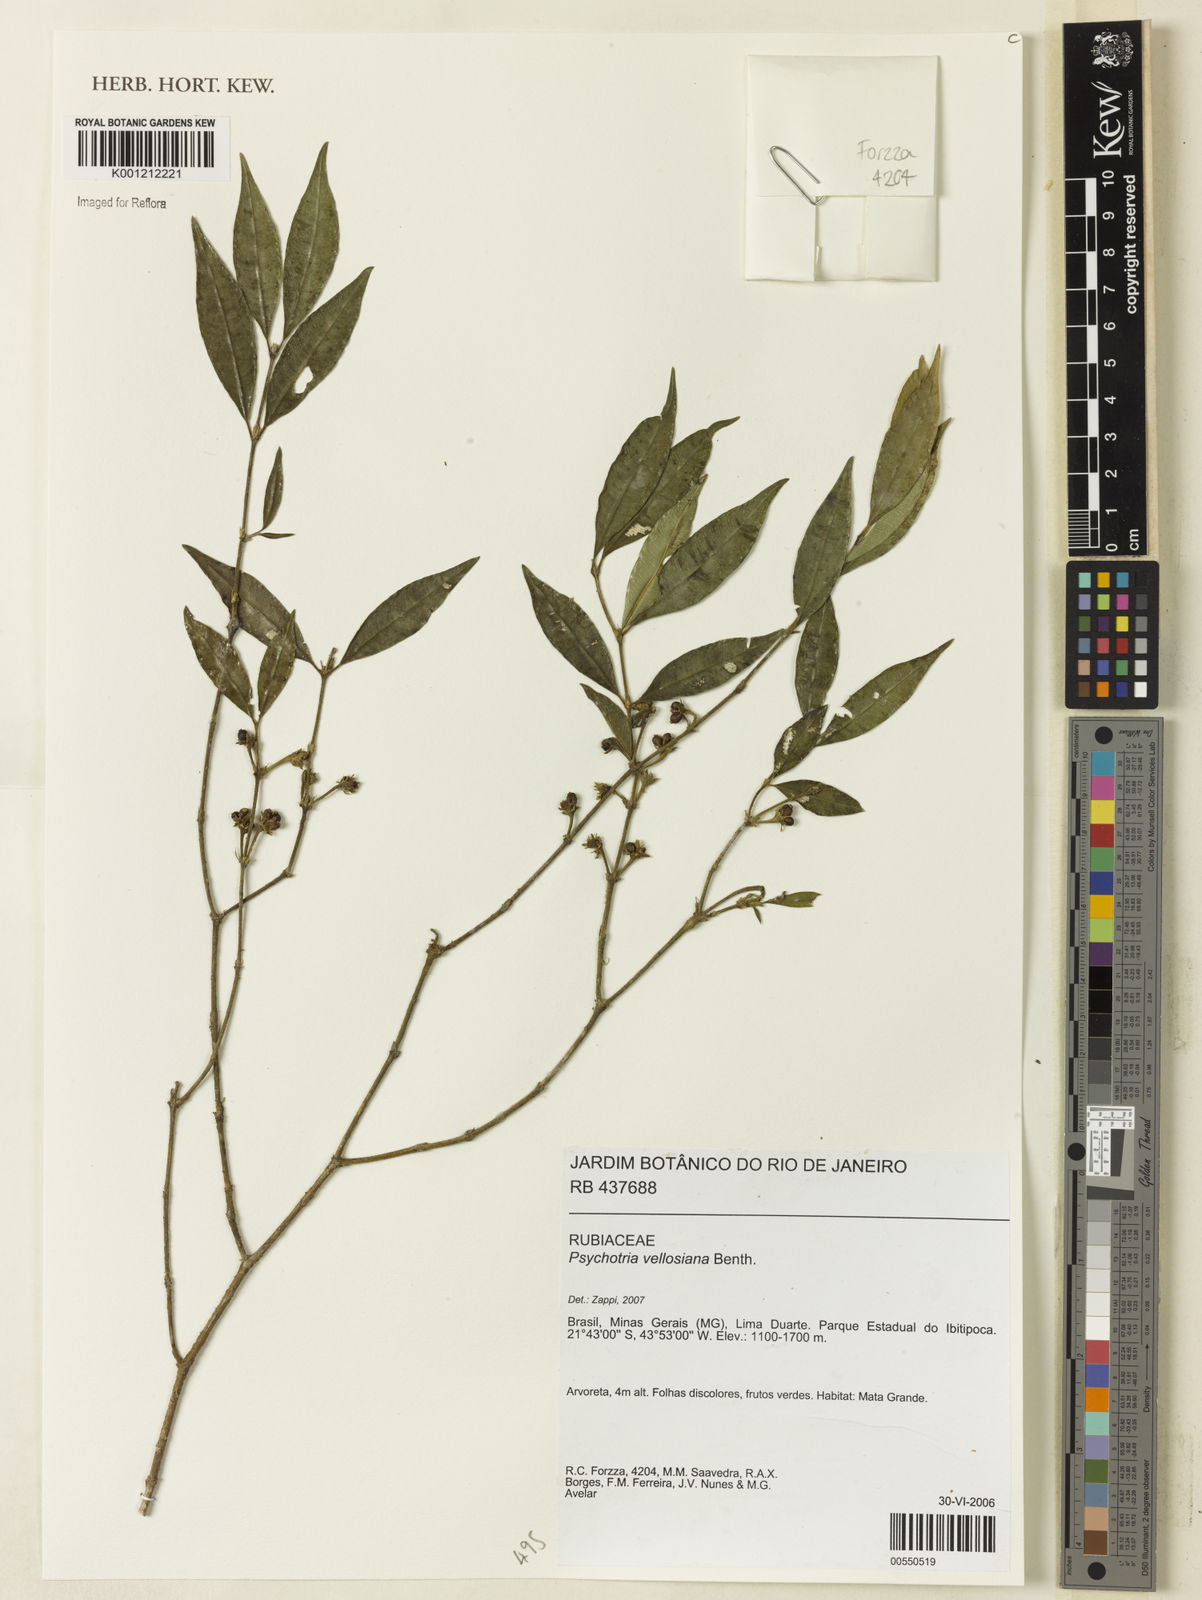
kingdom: Plantae
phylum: Tracheophyta
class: Magnoliopsida
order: Gentianales
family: Rubiaceae
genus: Palicourea
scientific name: Palicourea sessilis
